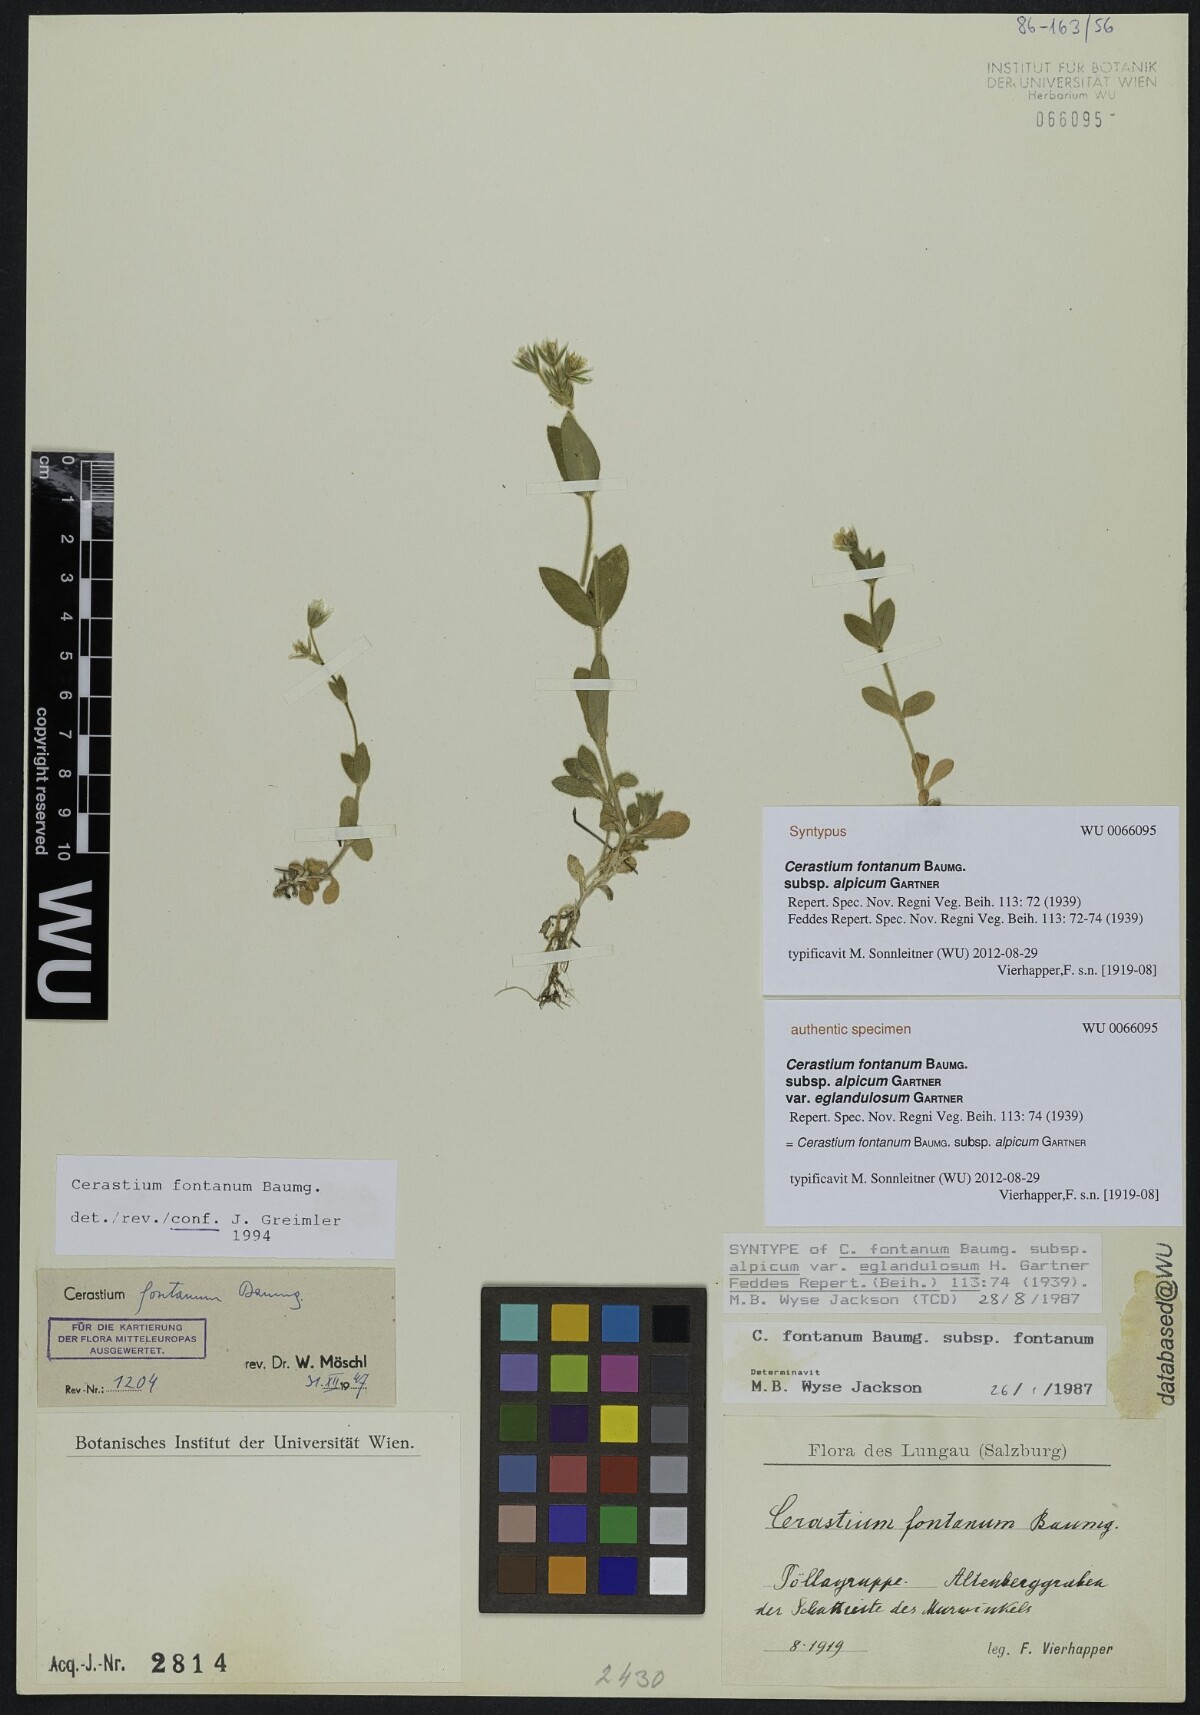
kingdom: Plantae
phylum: Tracheophyta
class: Magnoliopsida
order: Caryophyllales
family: Caryophyllaceae
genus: Cerastium
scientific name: Cerastium fontanum
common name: Common mouse-ear
